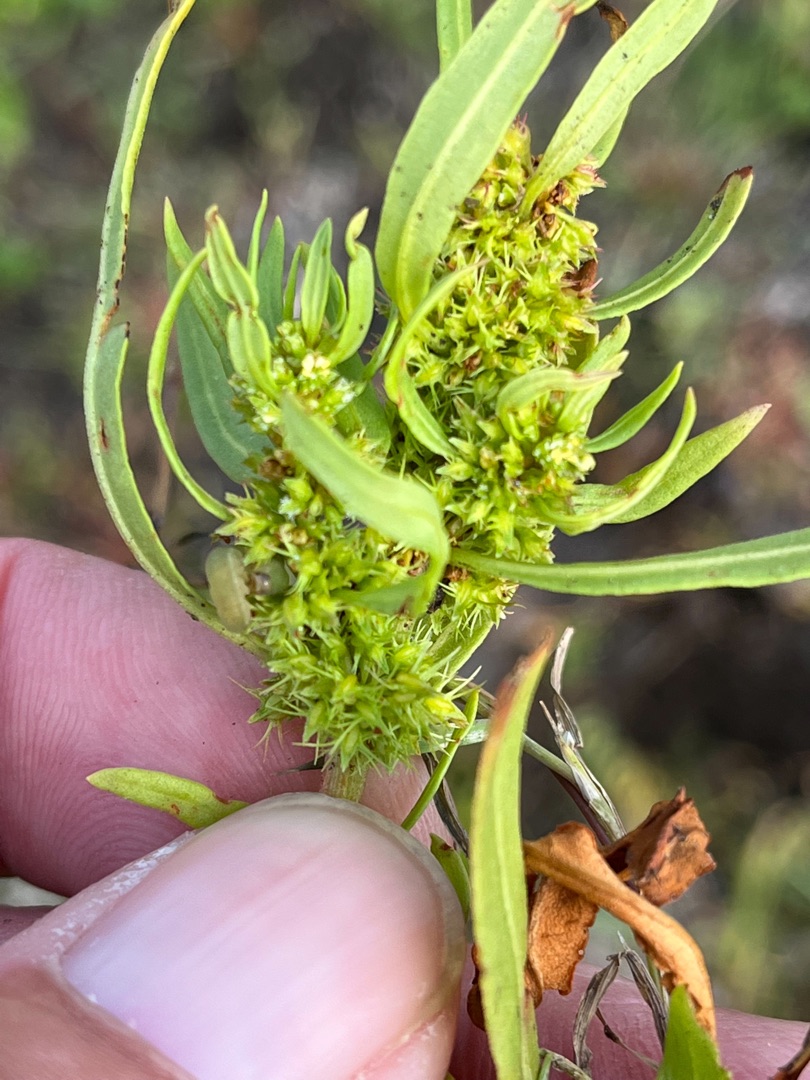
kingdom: Plantae
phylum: Tracheophyta
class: Magnoliopsida
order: Caryophyllales
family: Polygonaceae
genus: Rumex
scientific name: Rumex maritimus
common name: Strand-skræppe
